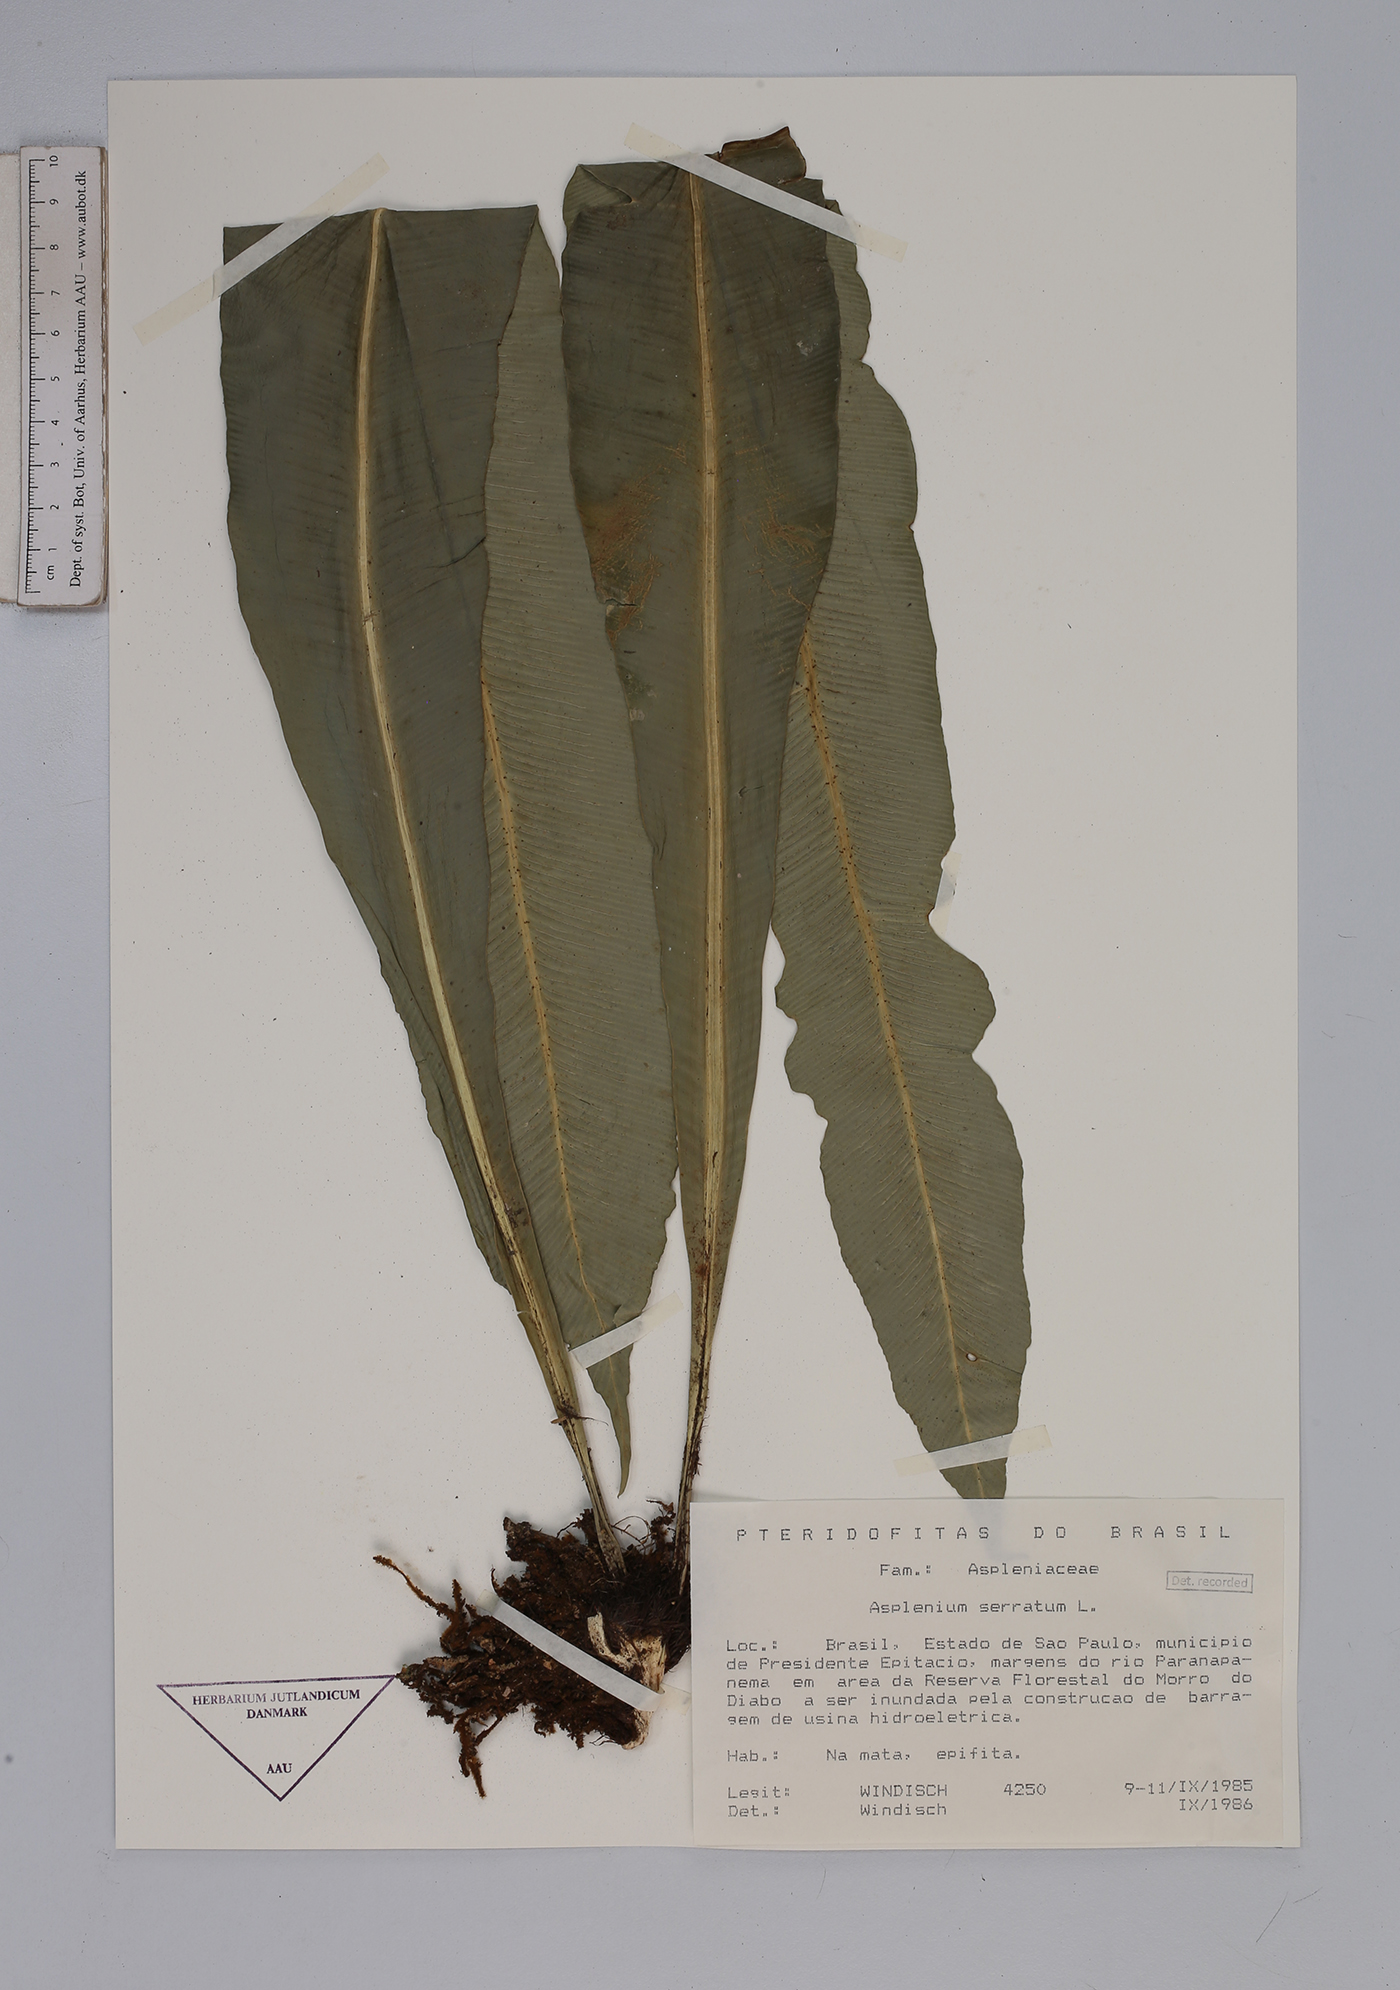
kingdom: Plantae
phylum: Tracheophyta
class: Polypodiopsida
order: Polypodiales
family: Aspleniaceae
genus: Asplenium
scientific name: Asplenium serratum
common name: Wild birdnest fern
